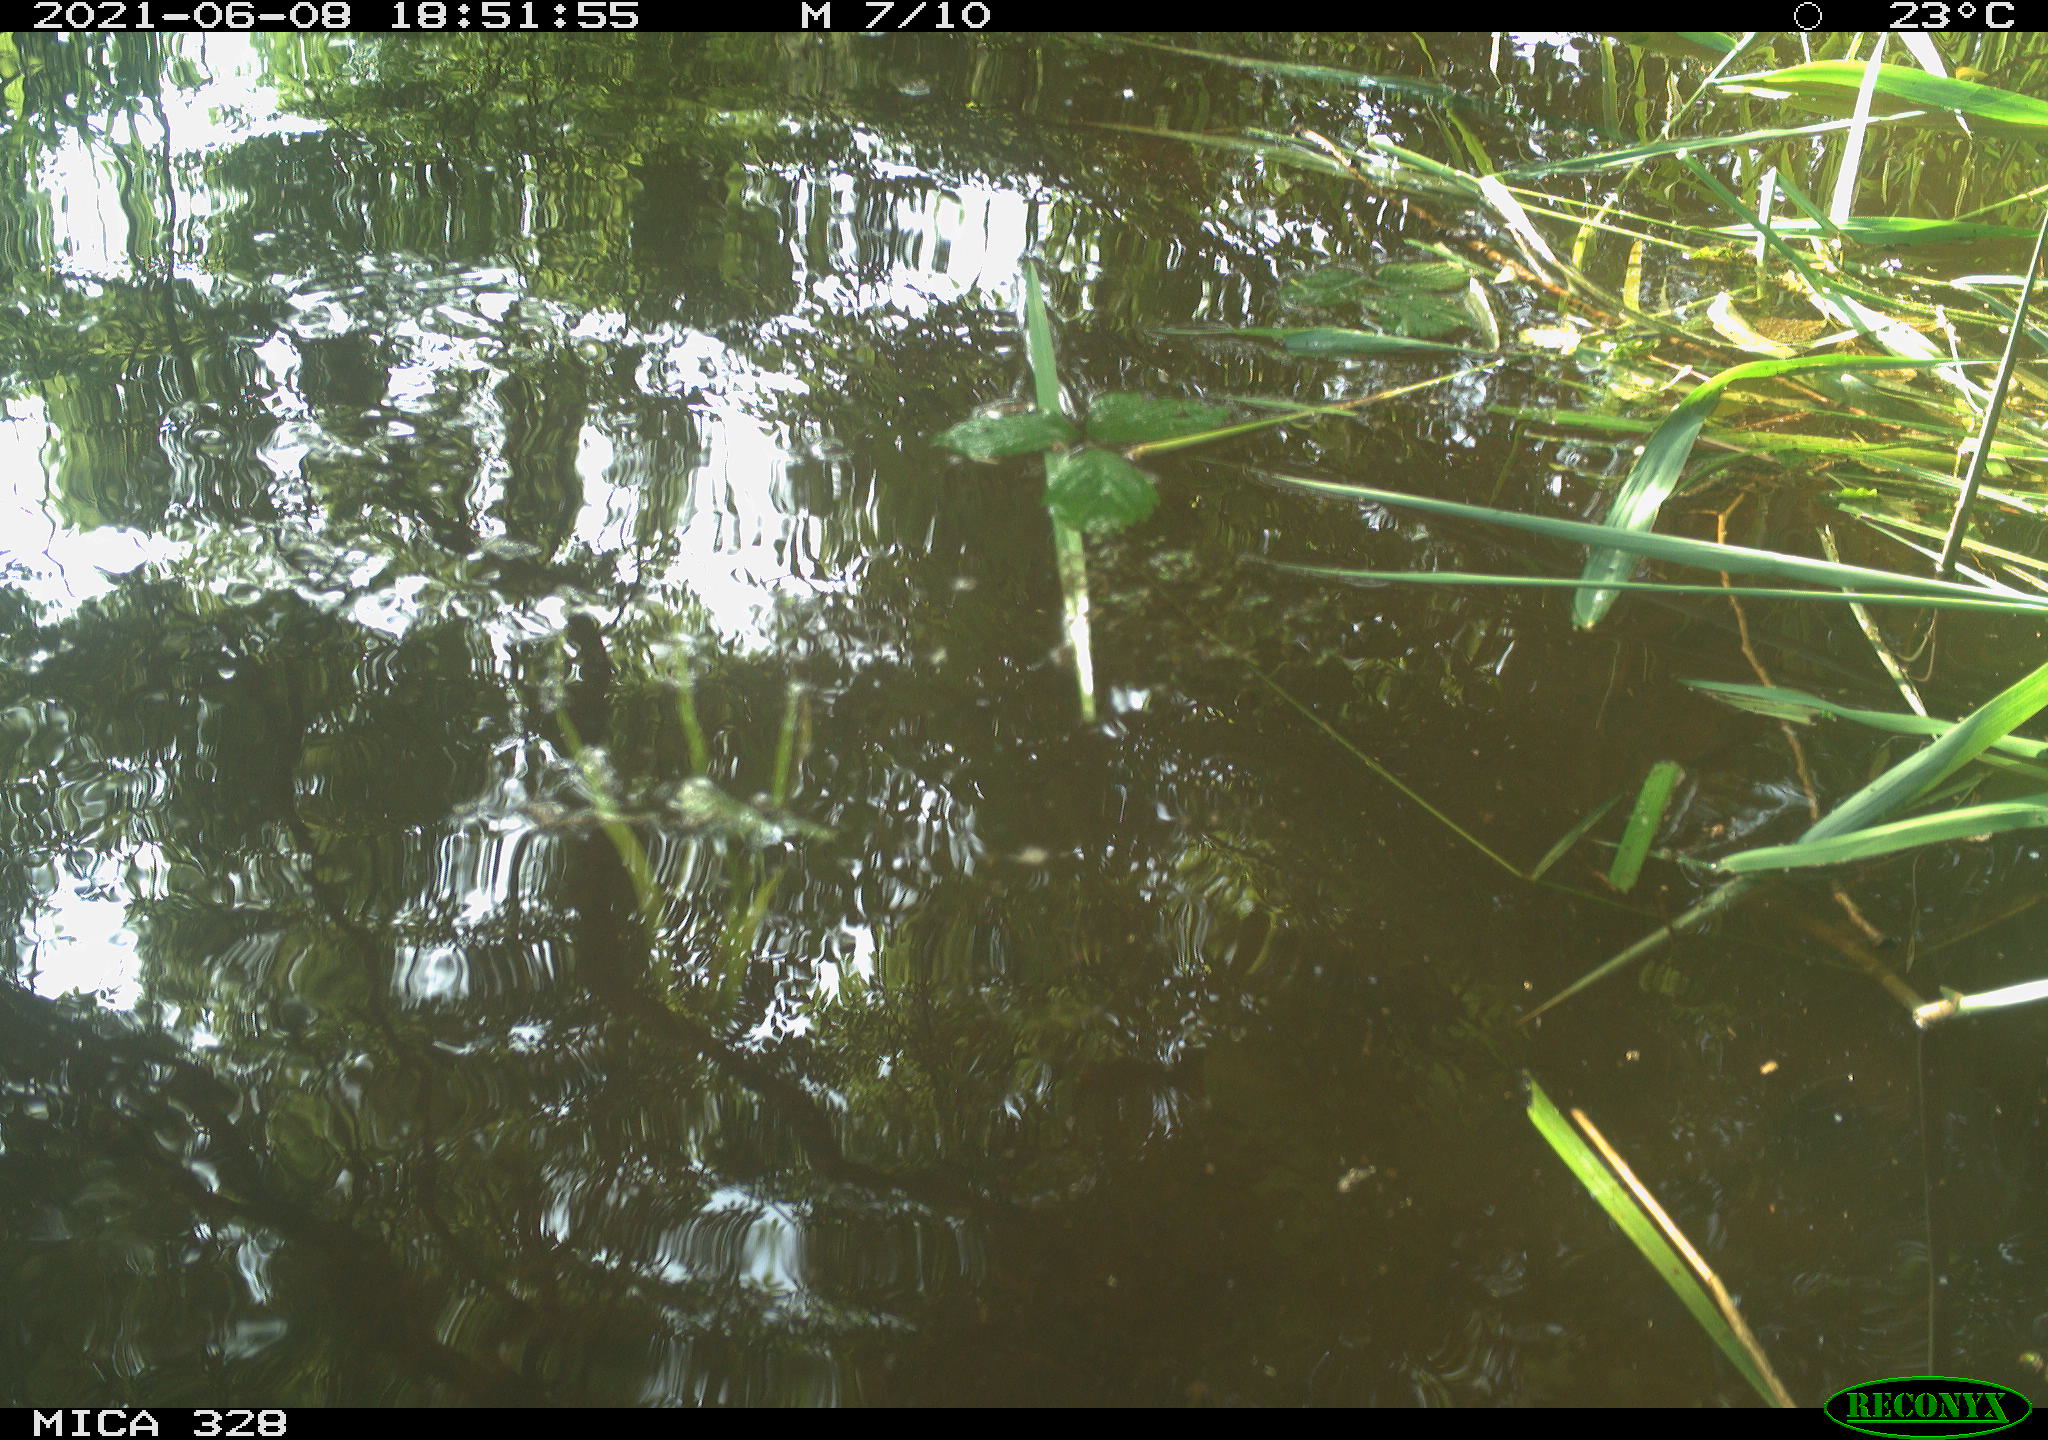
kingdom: Animalia
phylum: Chordata
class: Aves
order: Anseriformes
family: Anatidae
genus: Aix
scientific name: Aix galericulata
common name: Mandarin duck
